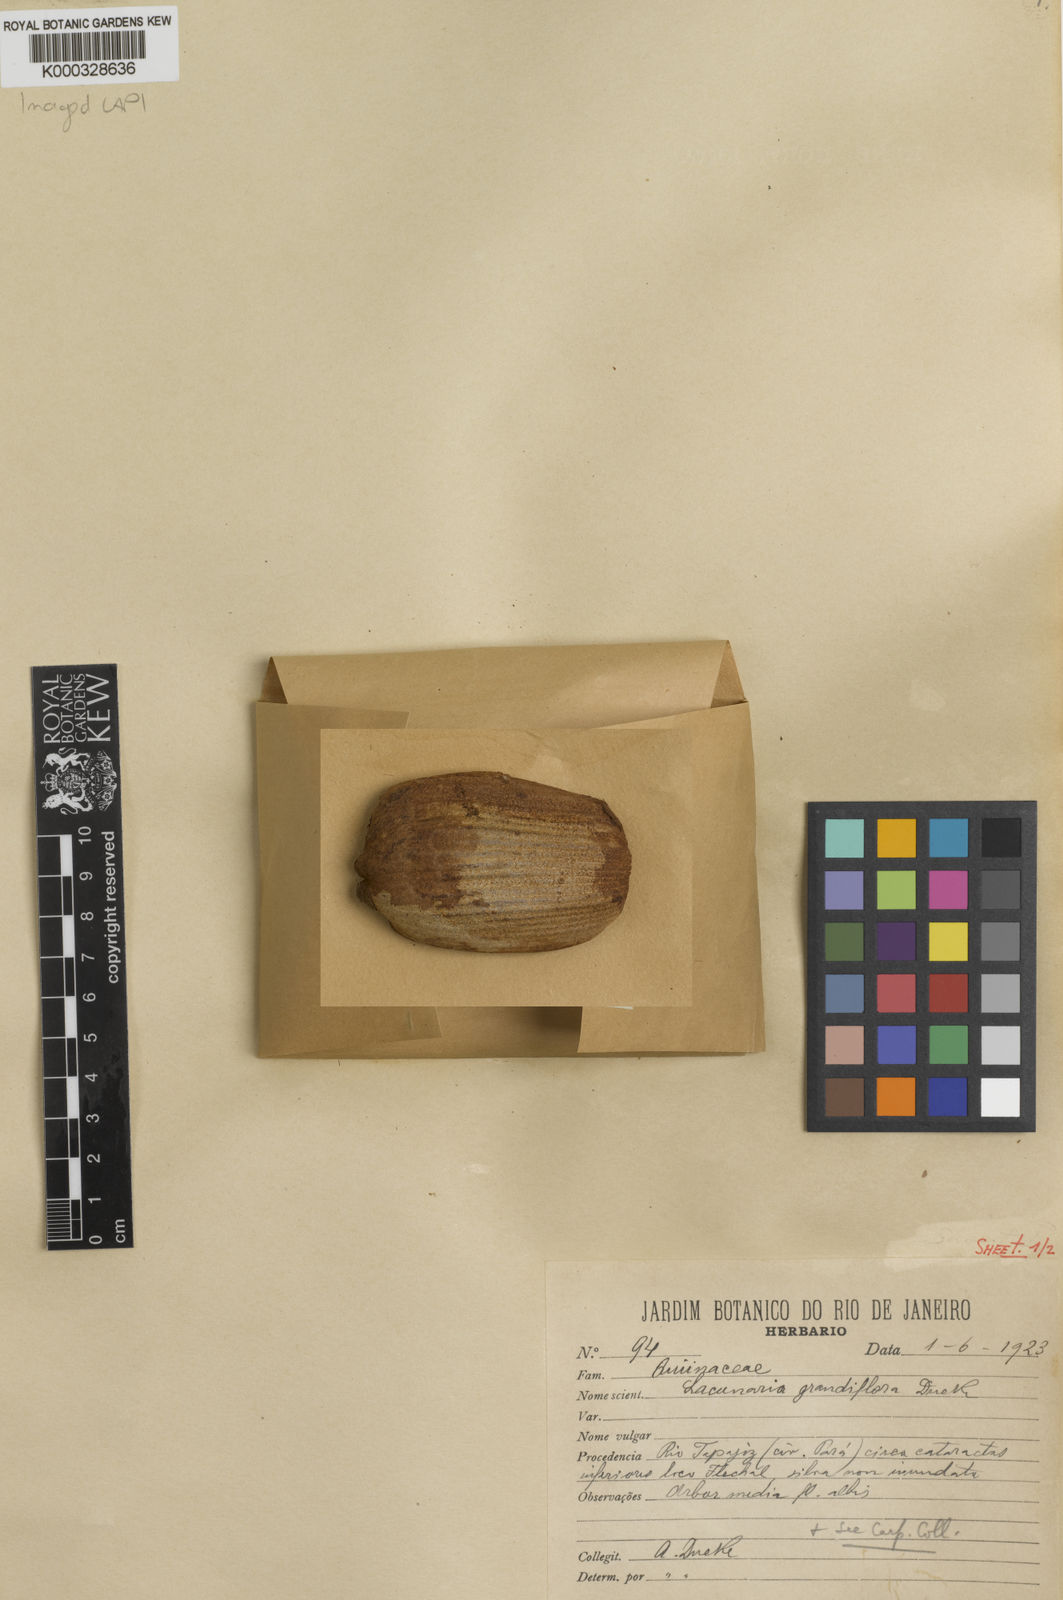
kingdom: Plantae
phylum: Tracheophyta
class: Magnoliopsida
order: Malpighiales
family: Quiinaceae
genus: Lacunaria
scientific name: Lacunaria jenmanii
